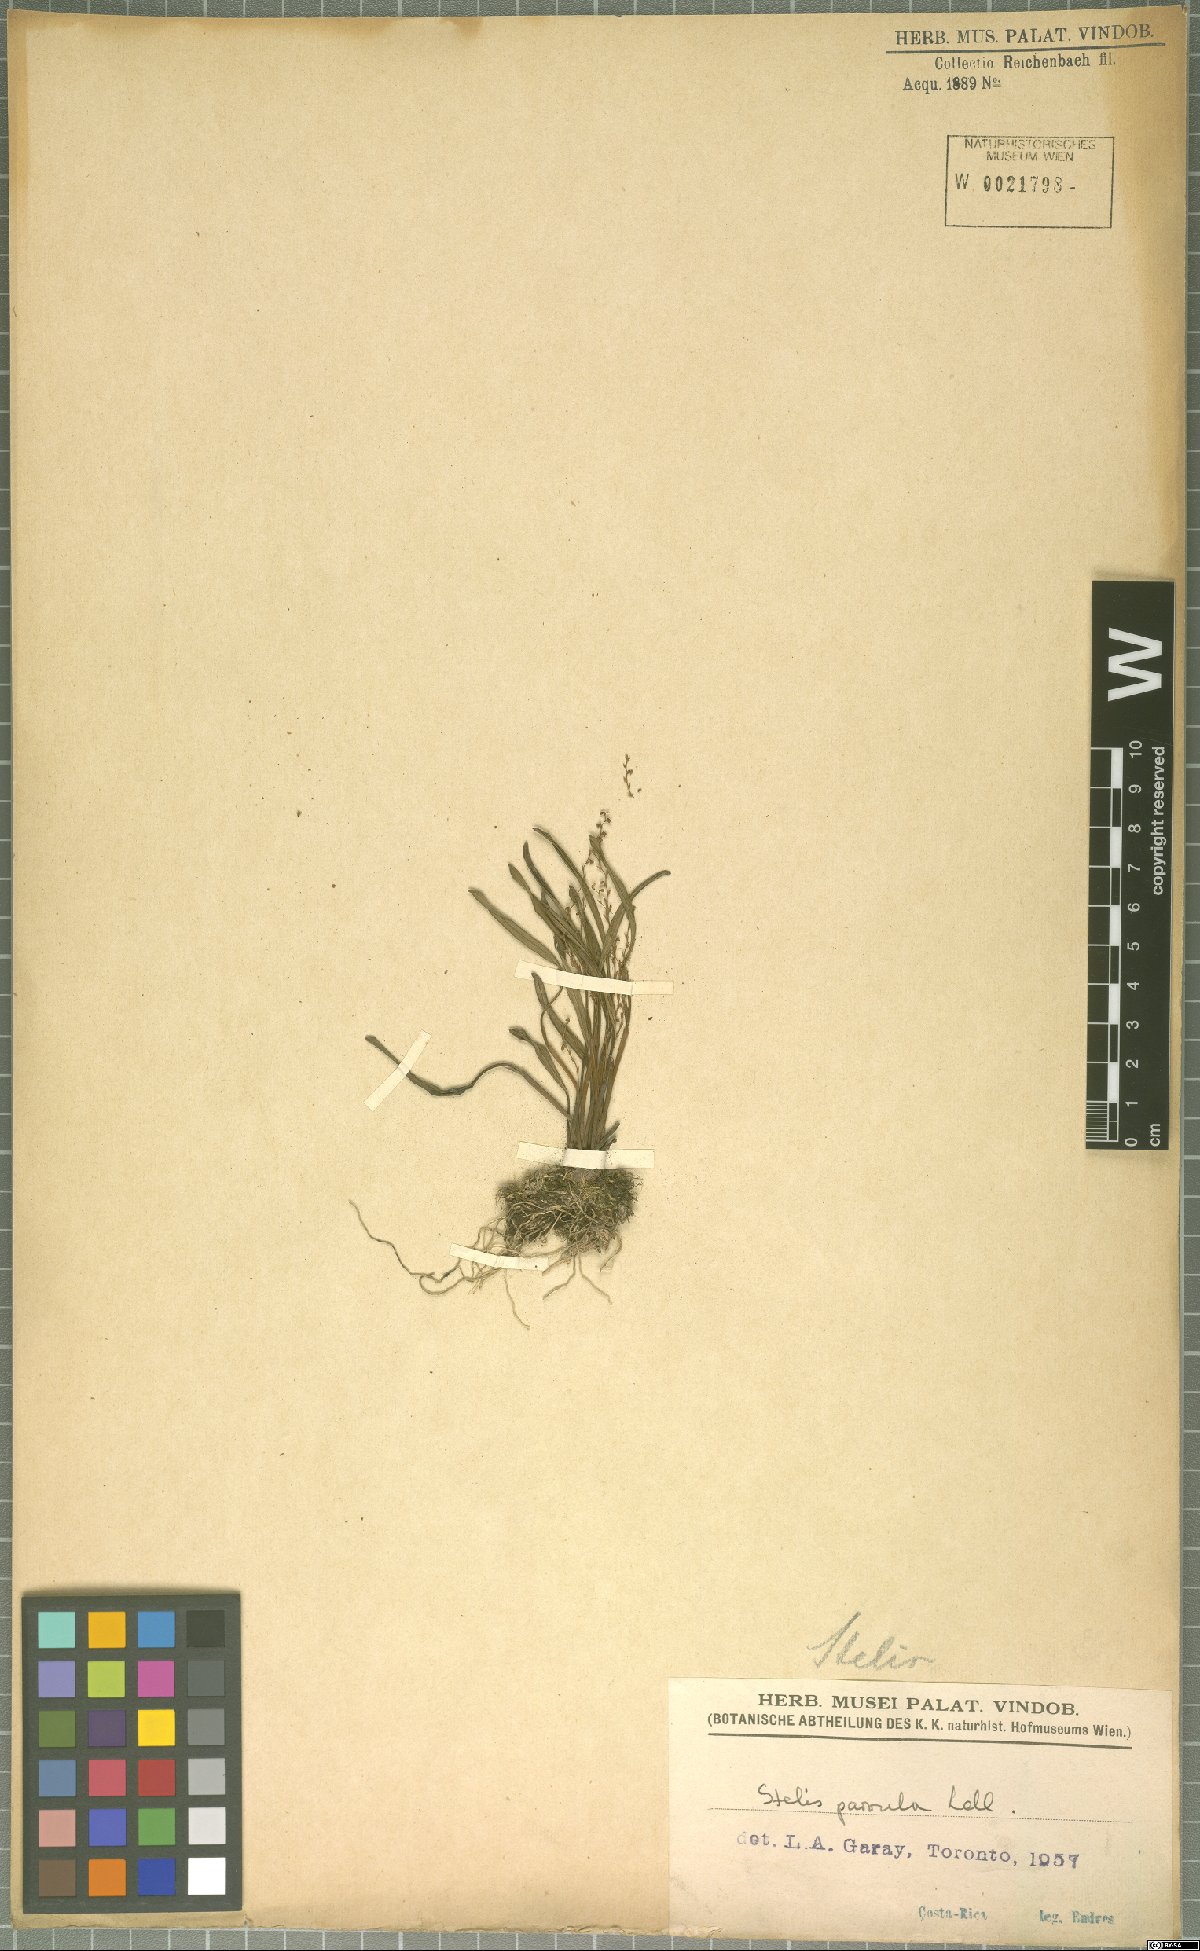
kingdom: Plantae
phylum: Tracheophyta
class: Liliopsida
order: Asparagales
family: Orchidaceae
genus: Stelis
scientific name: Stelis parvula
